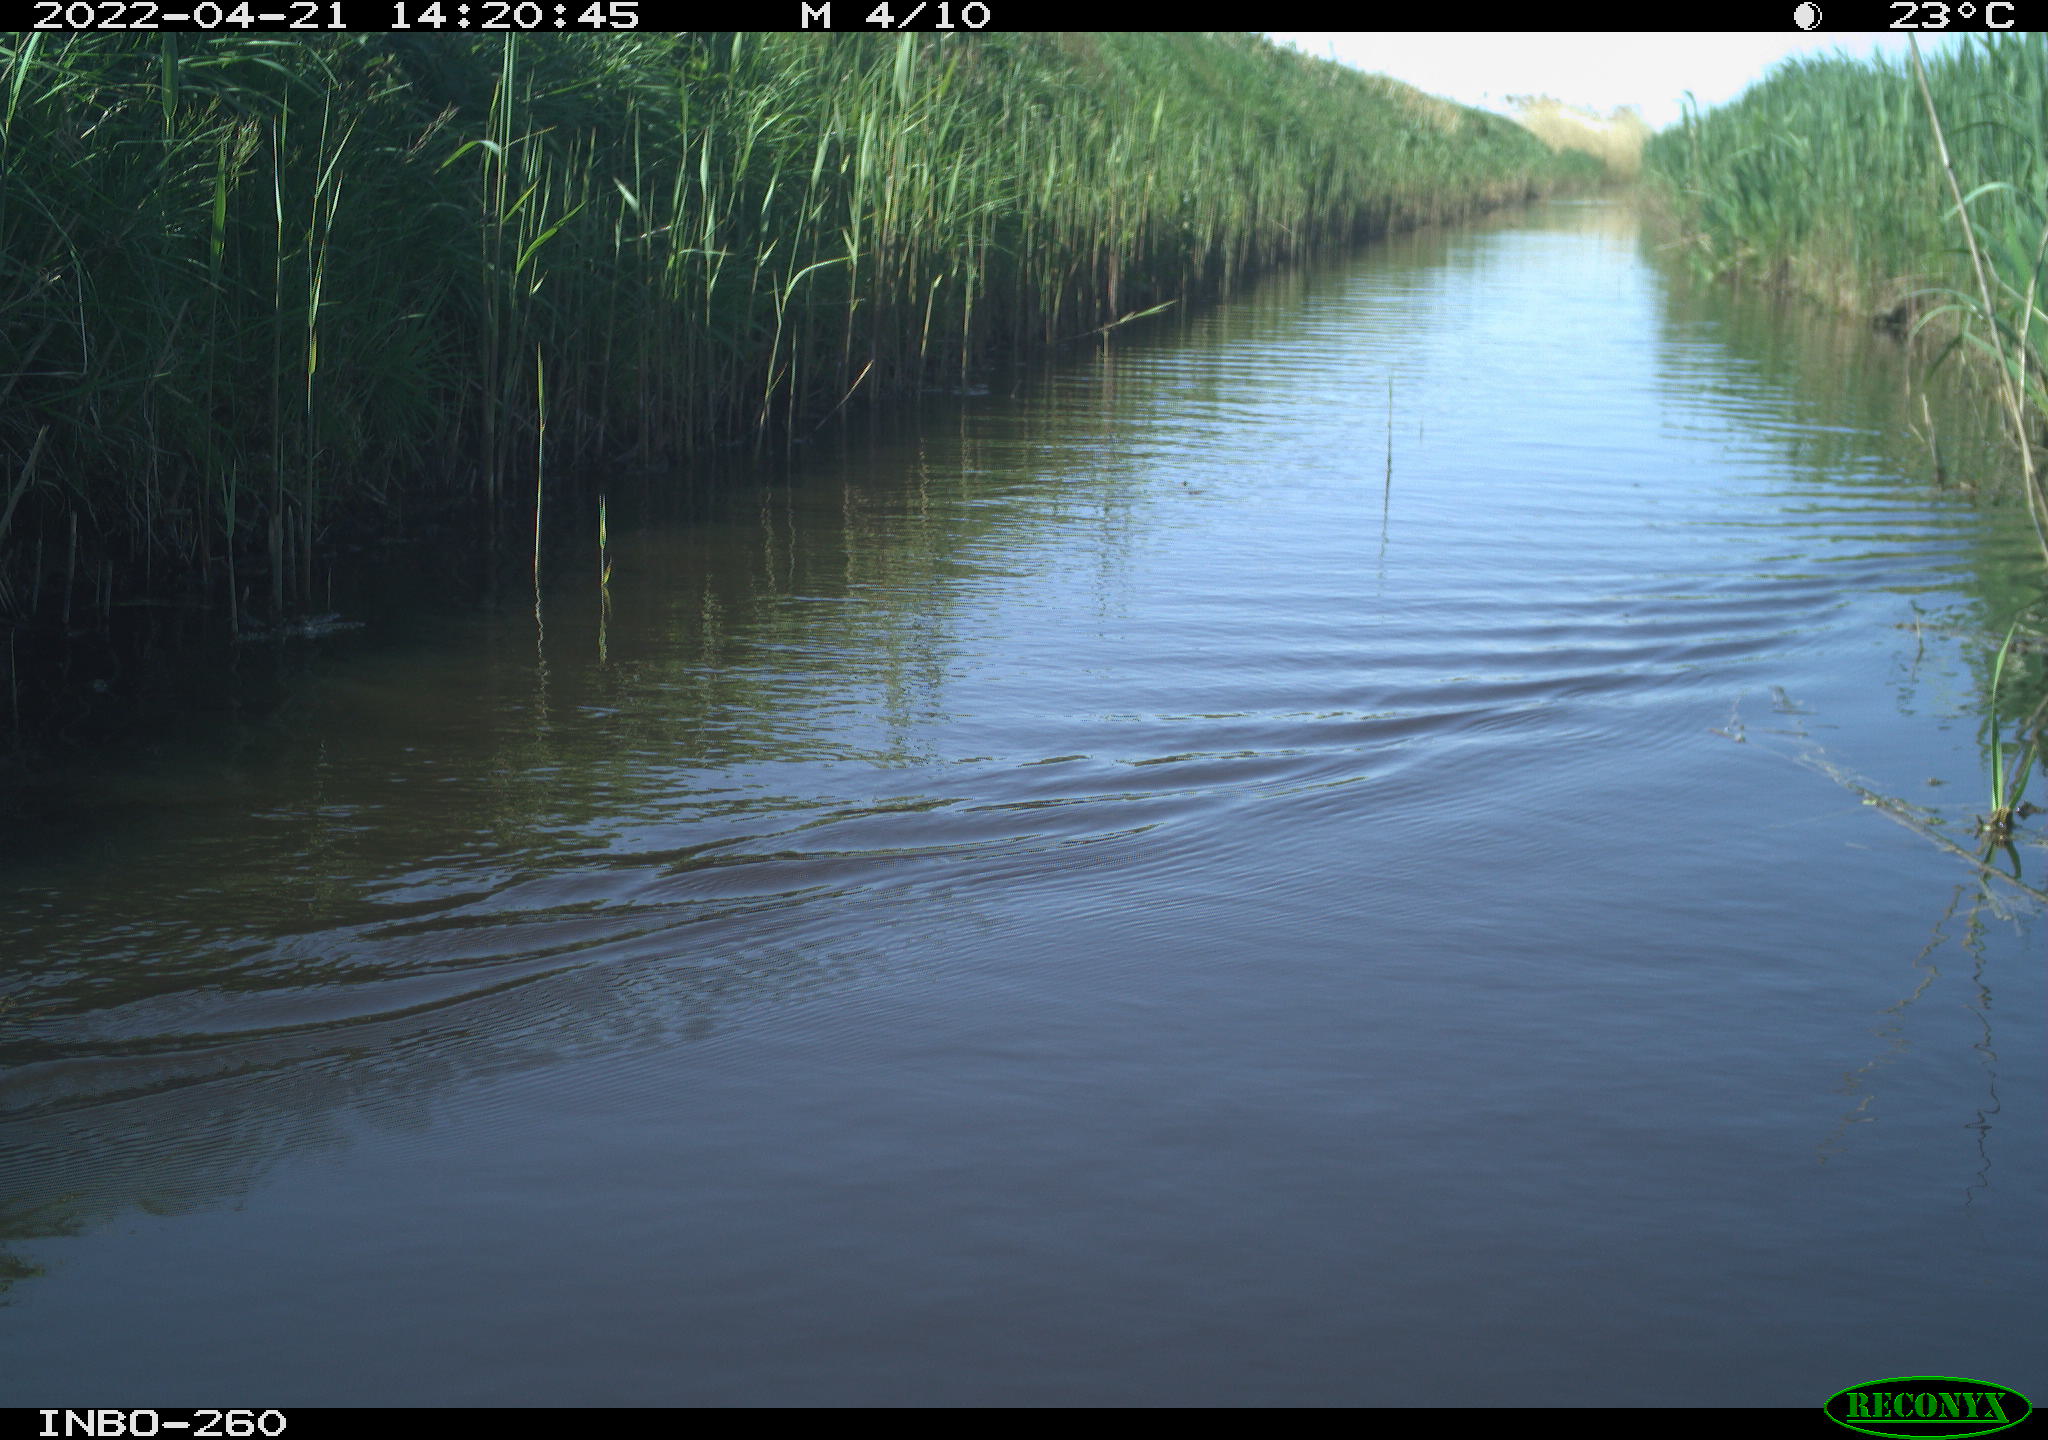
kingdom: Animalia
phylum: Chordata
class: Aves
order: Gruiformes
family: Rallidae
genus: Fulica
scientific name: Fulica atra
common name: Eurasian coot
